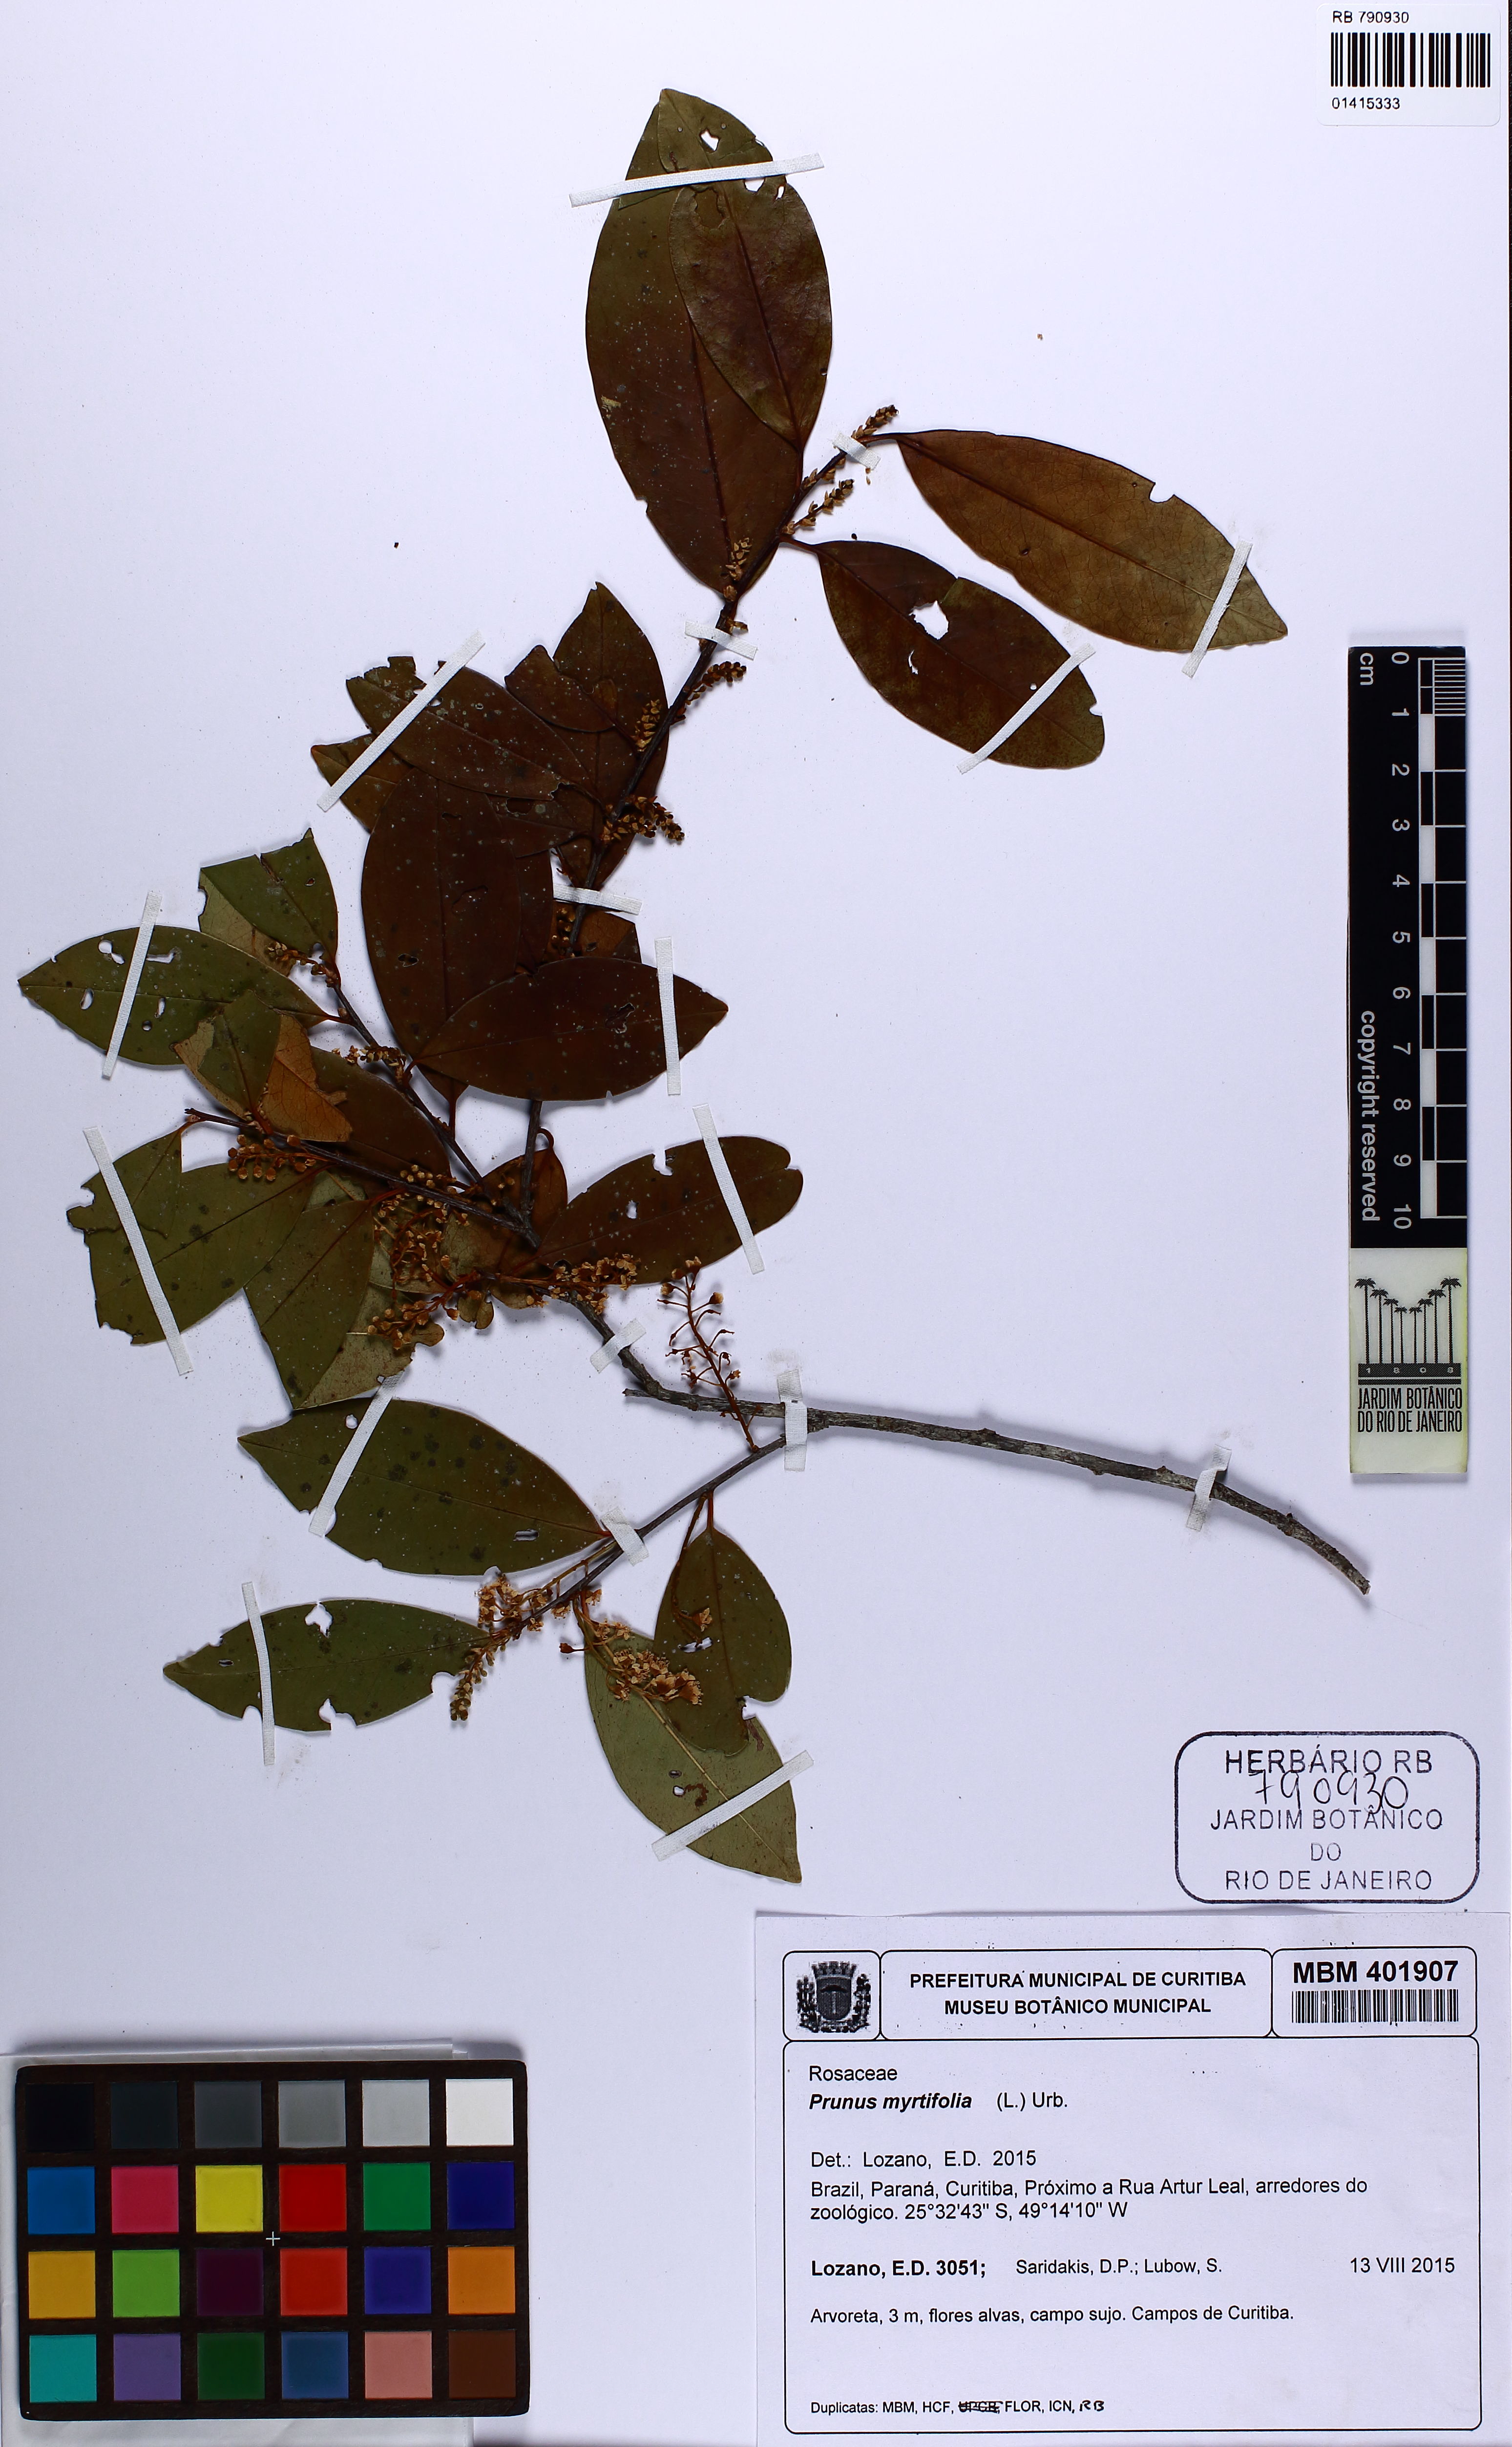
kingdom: Plantae
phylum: Tracheophyta
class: Magnoliopsida
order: Rosales
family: Rosaceae
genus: Prunus
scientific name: Prunus myrtifolia
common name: West indies cherry
